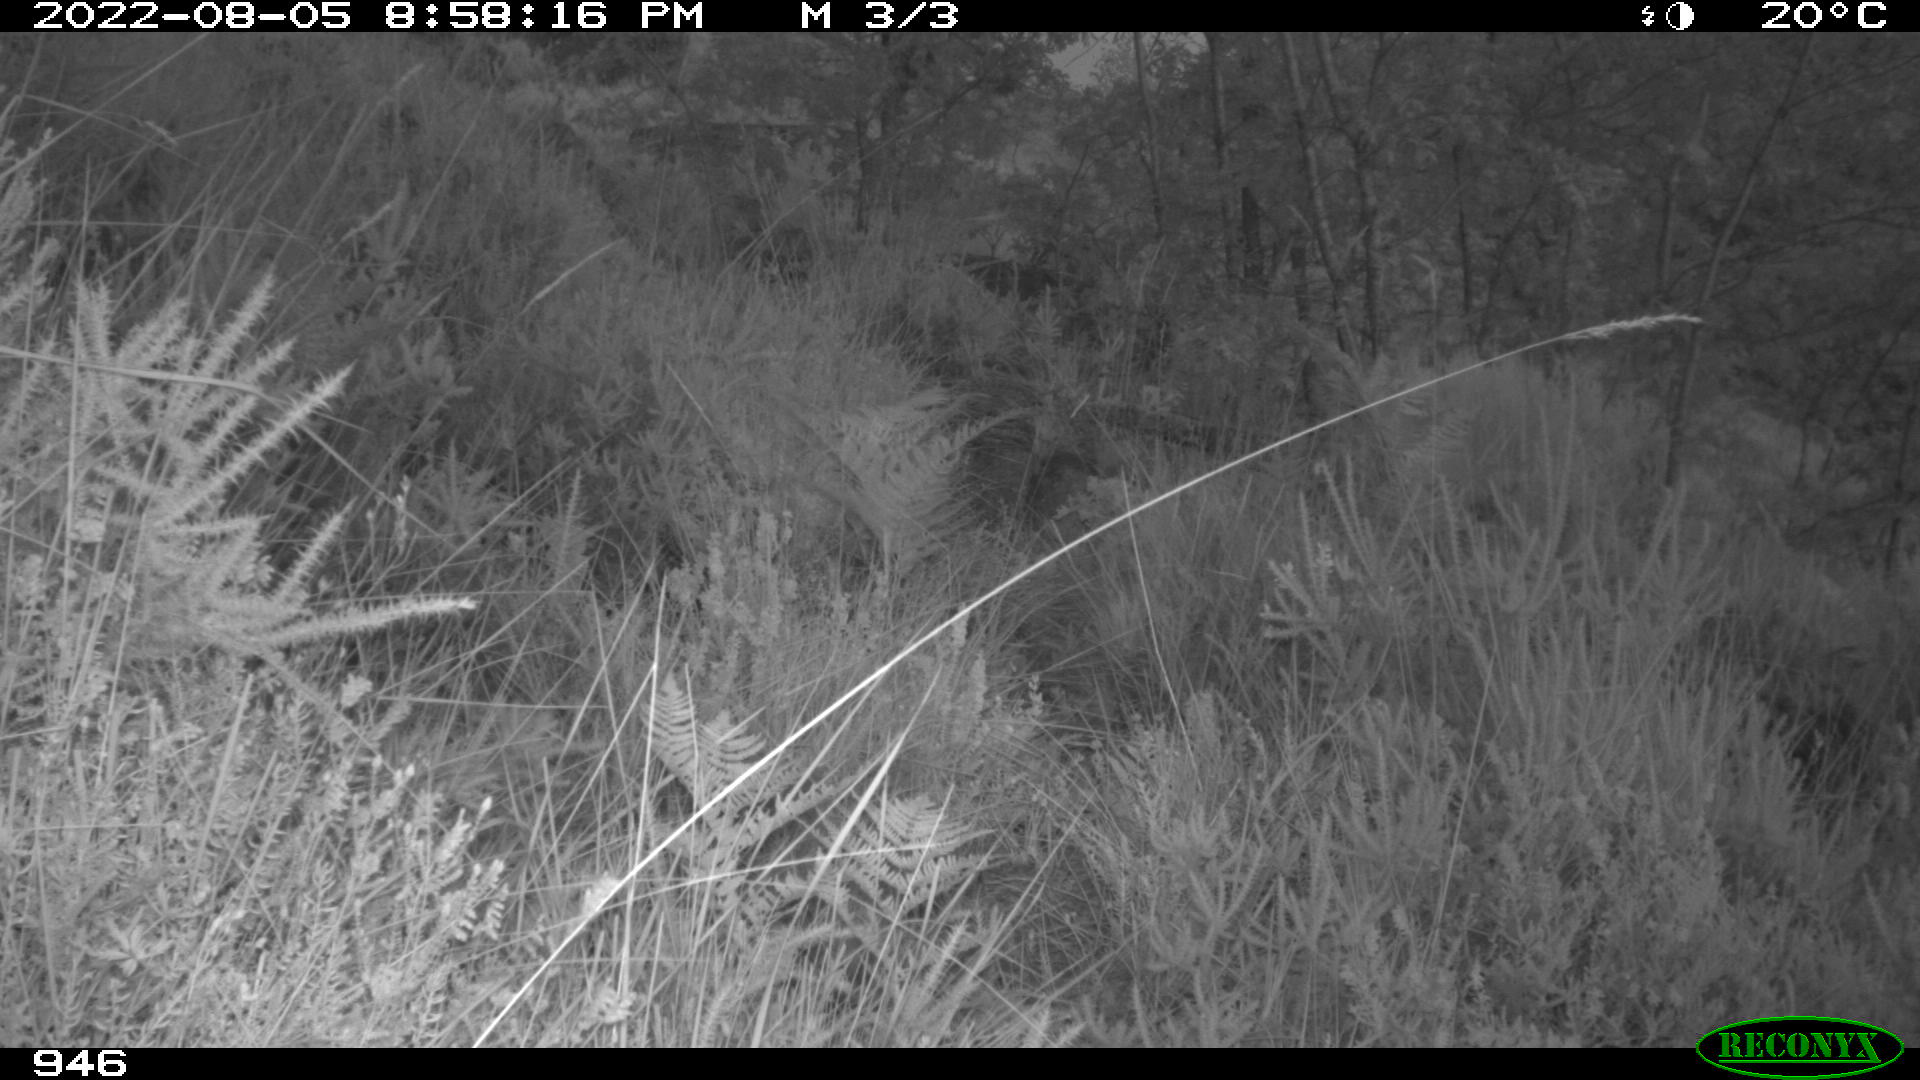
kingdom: Animalia
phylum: Chordata
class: Mammalia
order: Artiodactyla
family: Suidae
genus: Sus
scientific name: Sus scrofa
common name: Wild boar
